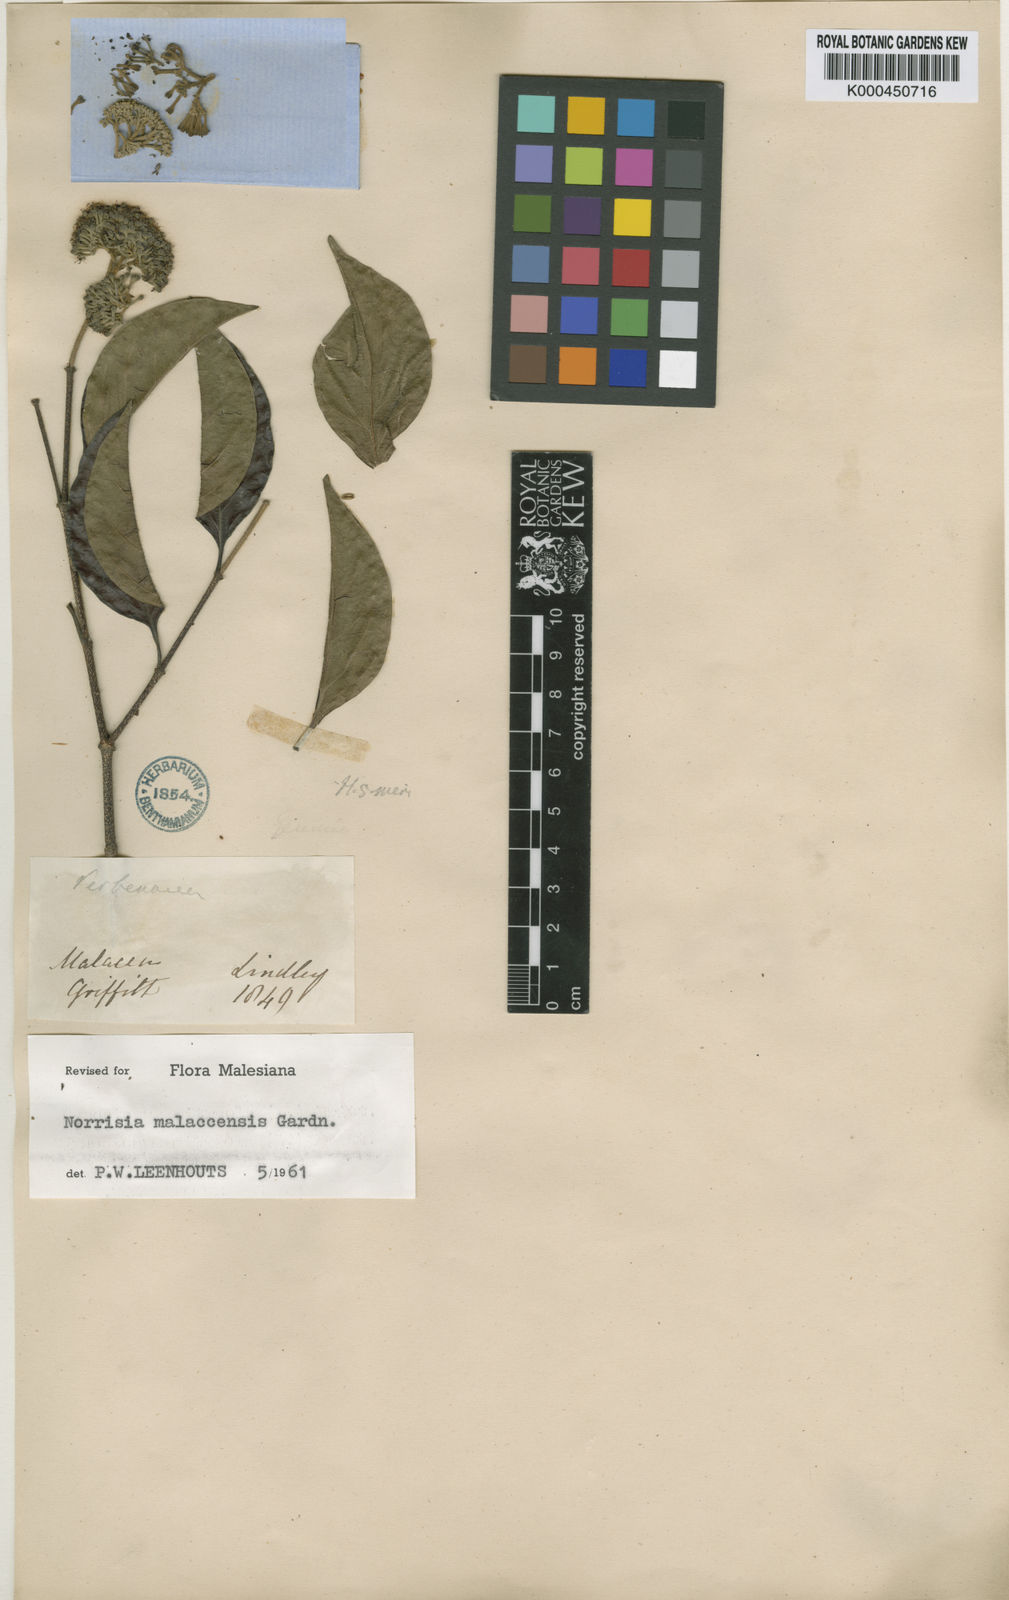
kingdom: Plantae
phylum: Tracheophyta
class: Magnoliopsida
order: Gentianales
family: Loganiaceae
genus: Norrisia
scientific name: Norrisia malaccensis
